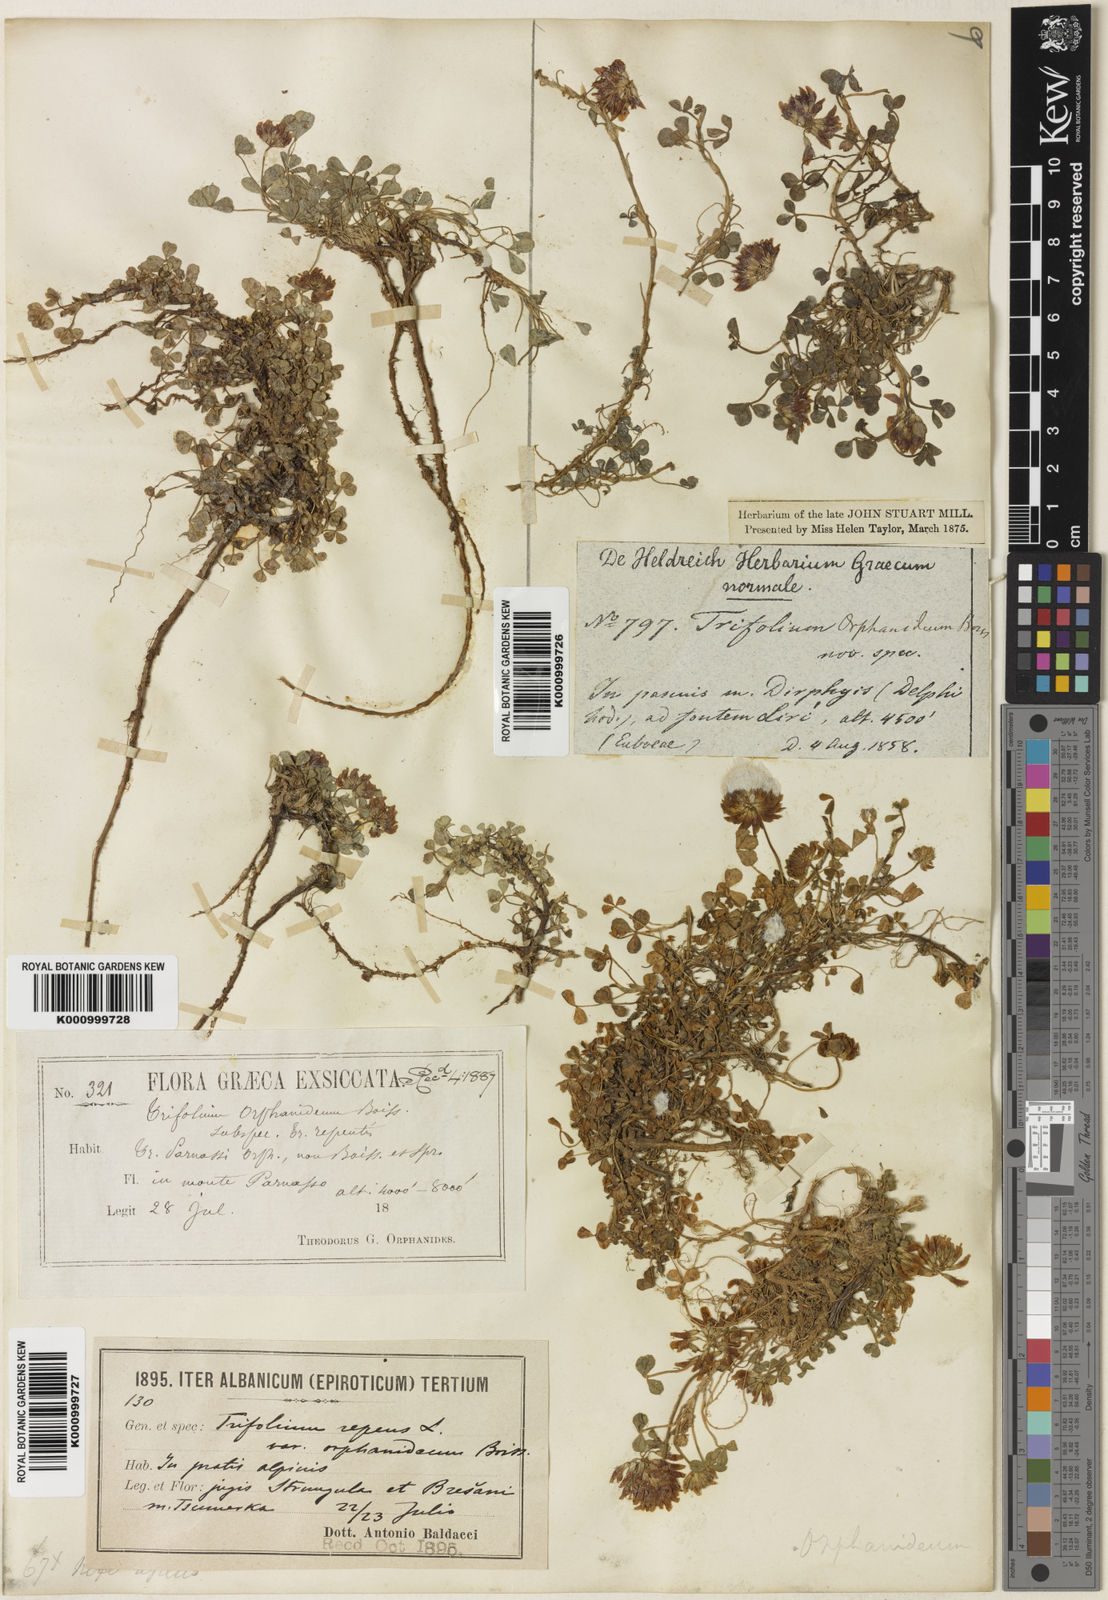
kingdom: Plantae
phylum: Tracheophyta
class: Magnoliopsida
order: Fabales
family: Fabaceae
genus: Trifolium
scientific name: Trifolium repens
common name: White clover
